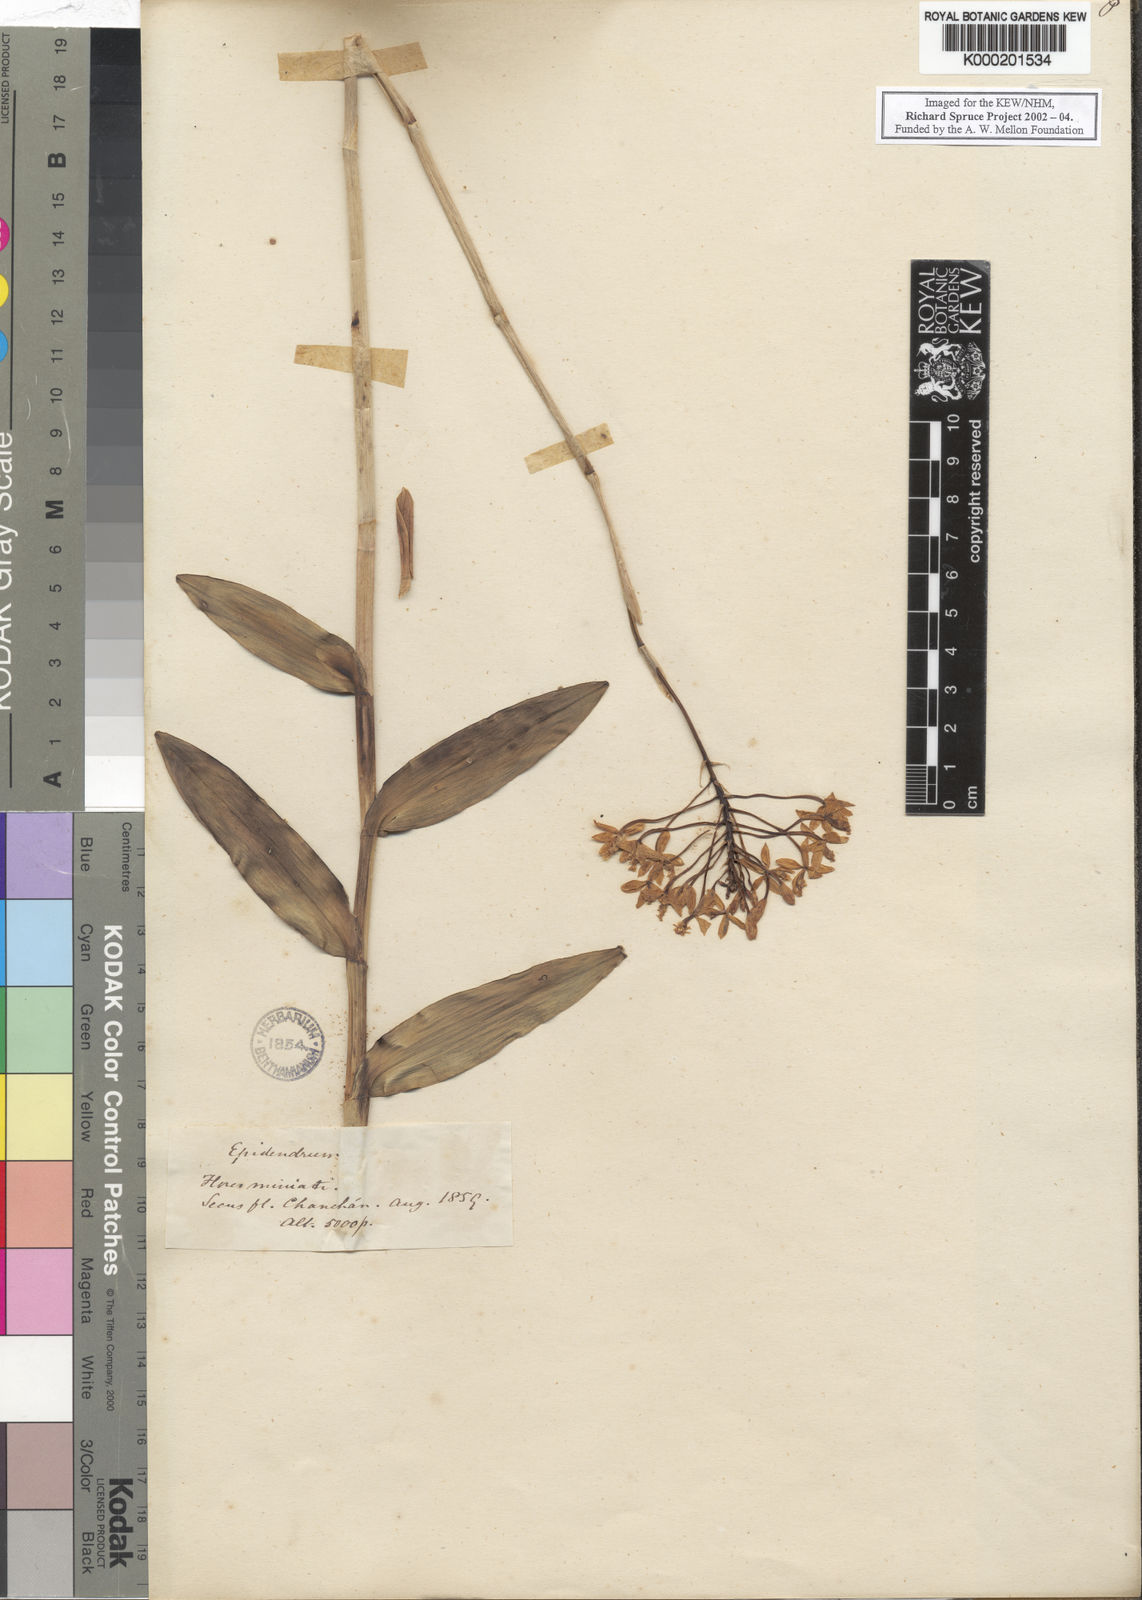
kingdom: Plantae
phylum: Tracheophyta
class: Liliopsida
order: Asparagales
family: Orchidaceae
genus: Epidendrum
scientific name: Epidendrum
